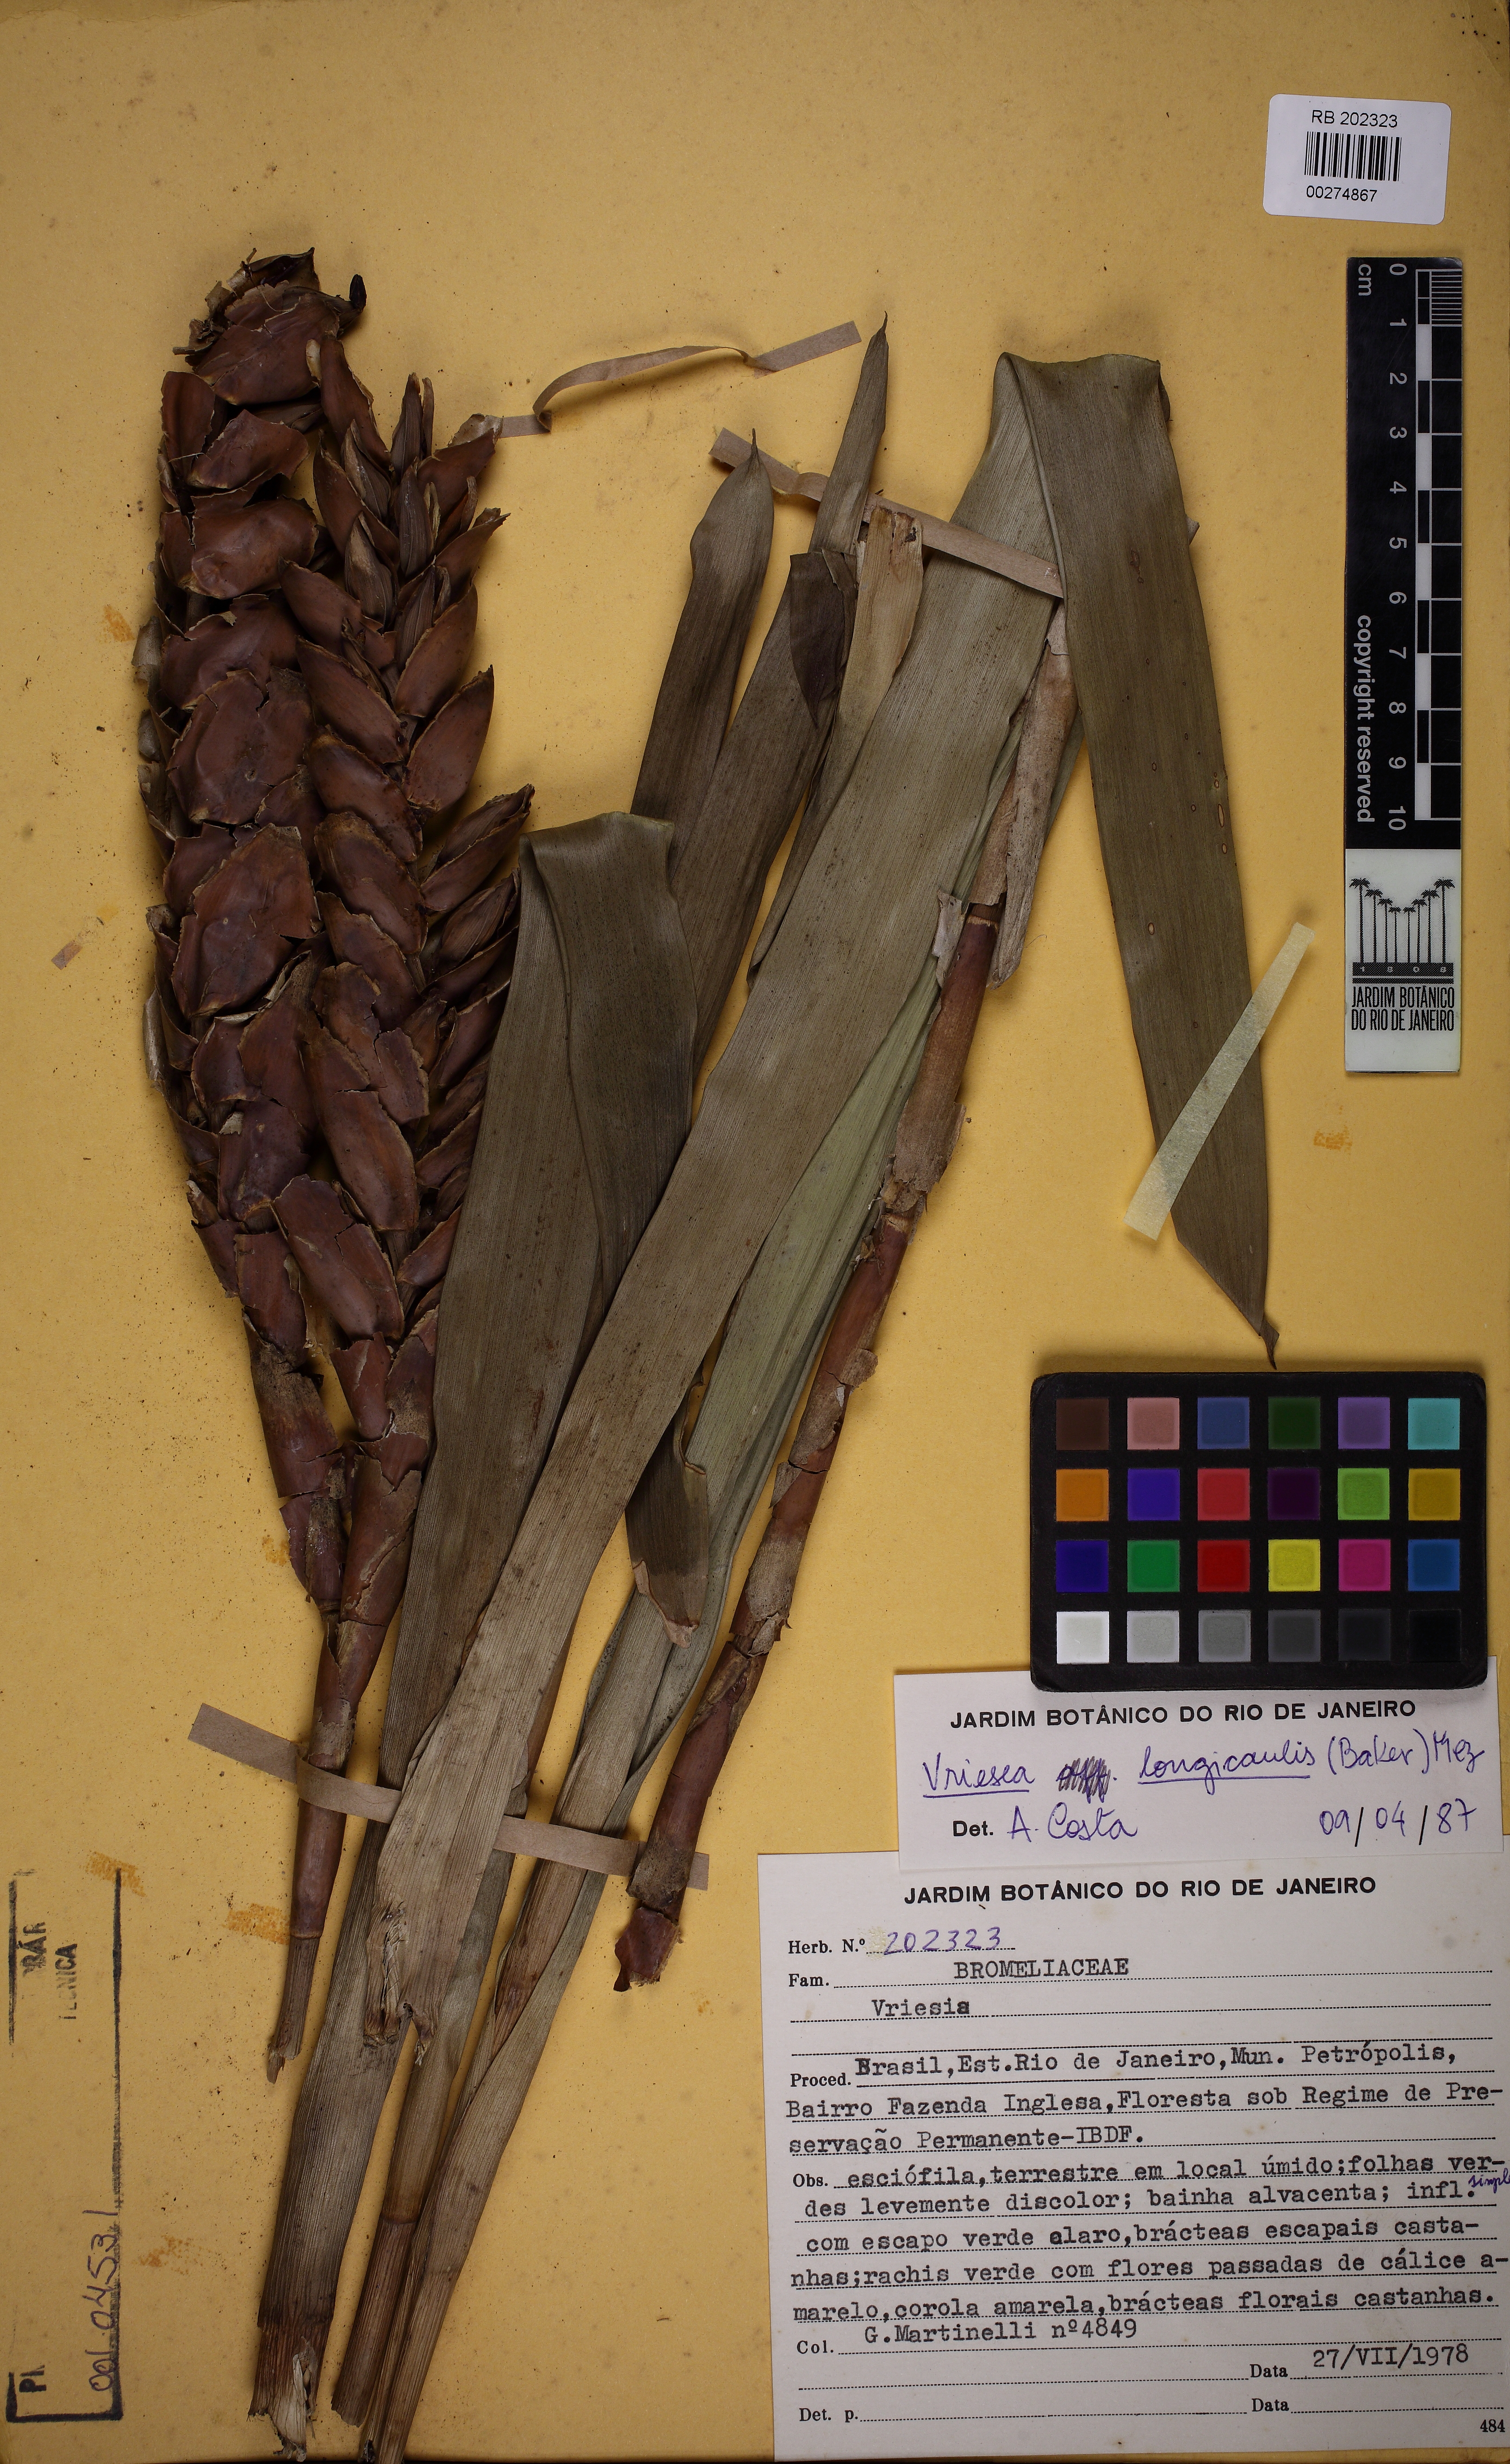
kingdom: Plantae
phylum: Tracheophyta
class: Liliopsida
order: Poales
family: Bromeliaceae
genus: Vriesea
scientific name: Vriesea longicaulis
